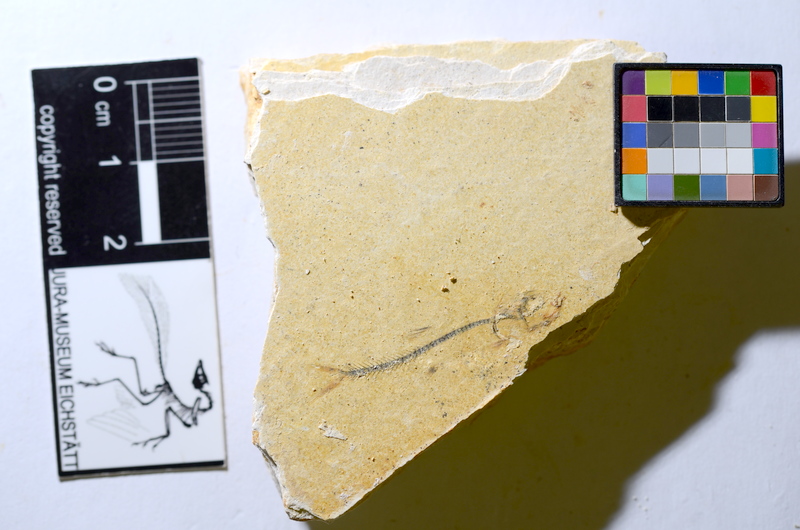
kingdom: Animalia
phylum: Chordata
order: Salmoniformes
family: Orthogonikleithridae
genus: Orthogonikleithrus
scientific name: Orthogonikleithrus hoelli
